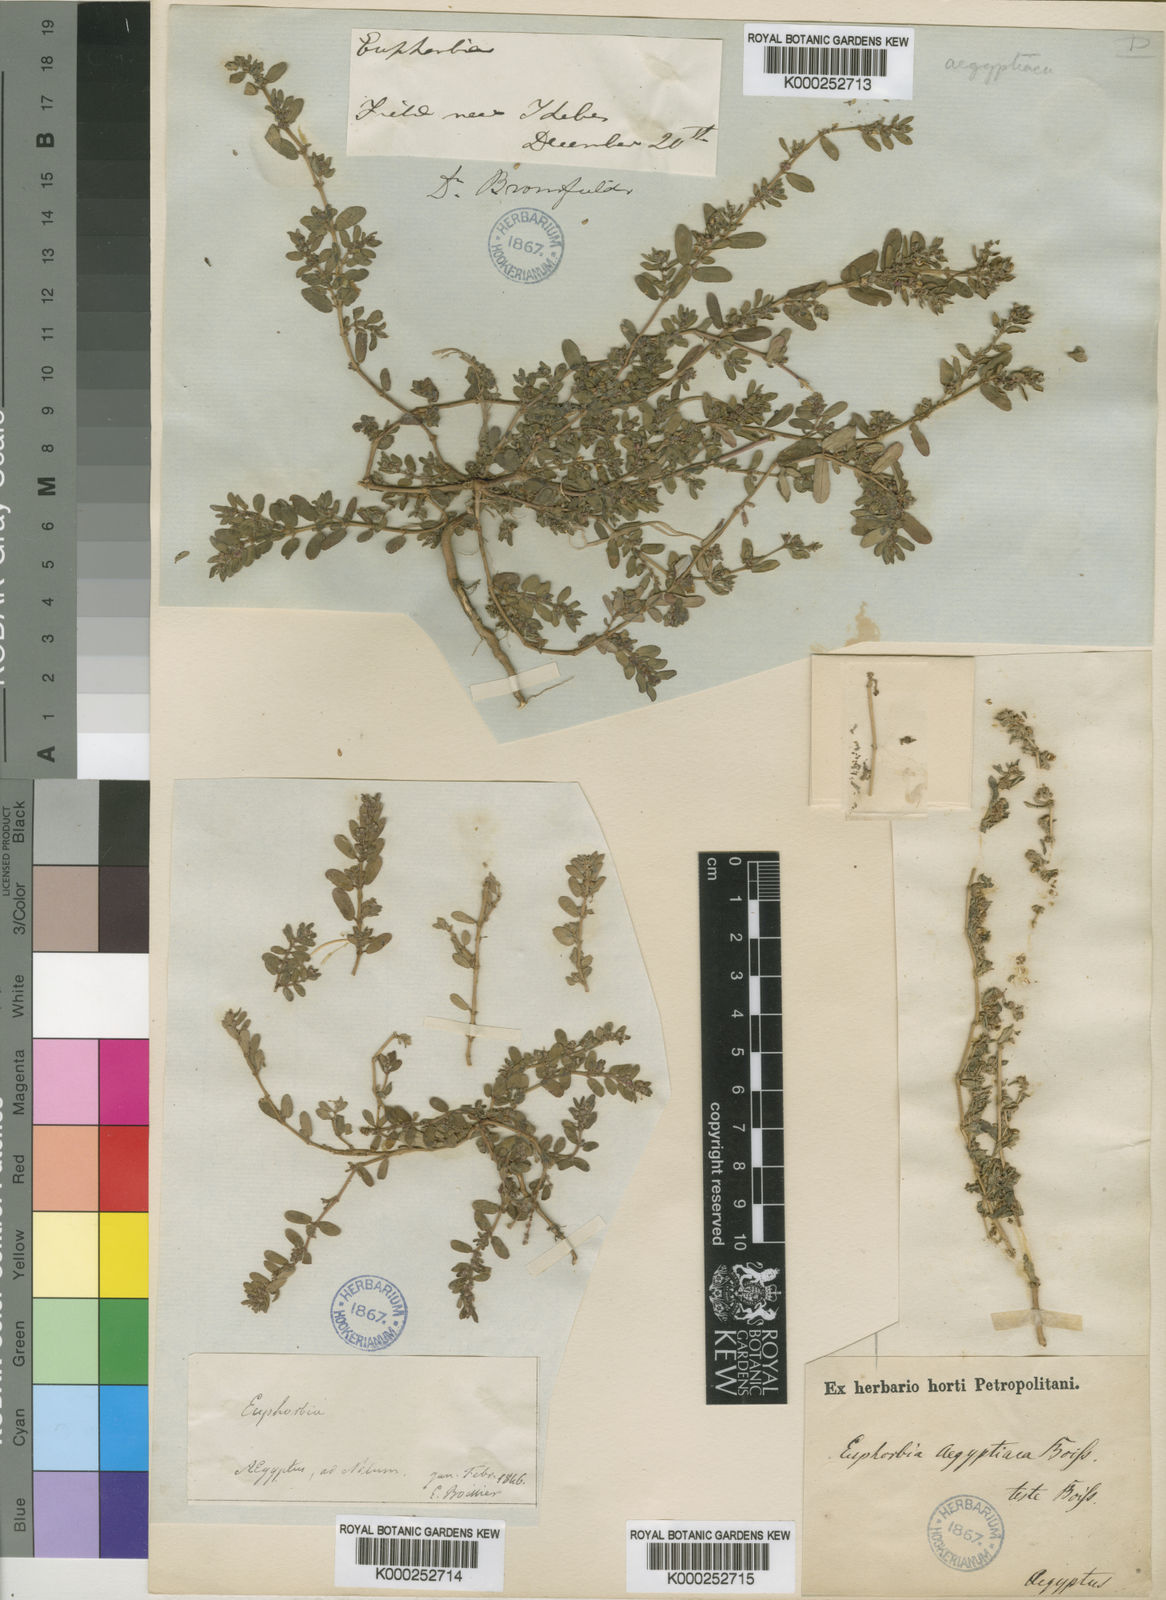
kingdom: Plantae
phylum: Tracheophyta
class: Magnoliopsida
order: Malpighiales
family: Euphorbiaceae
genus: Euphorbia
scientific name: Euphorbia
